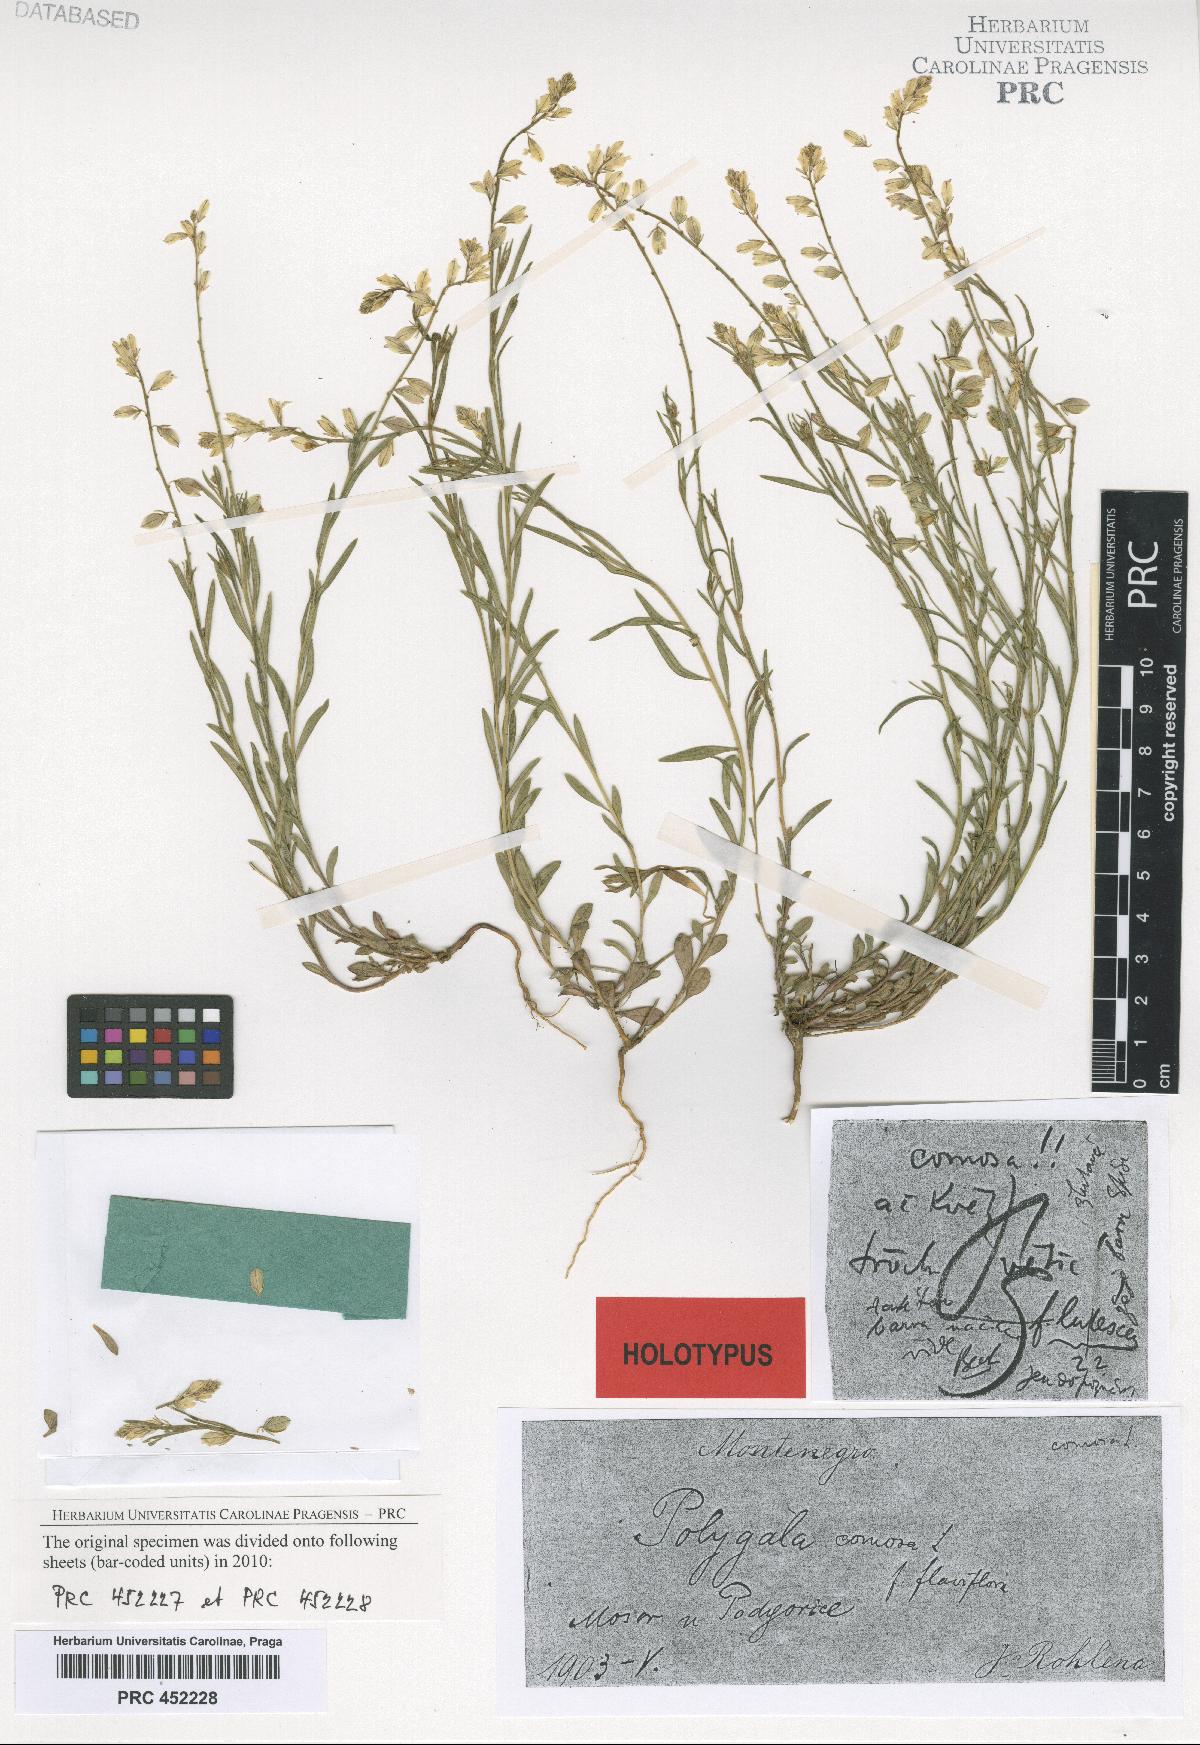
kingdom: Plantae
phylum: Tracheophyta
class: Magnoliopsida
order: Fabales
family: Polygalaceae
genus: Polygala
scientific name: Polygala comosa
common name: Tufted milkwort
